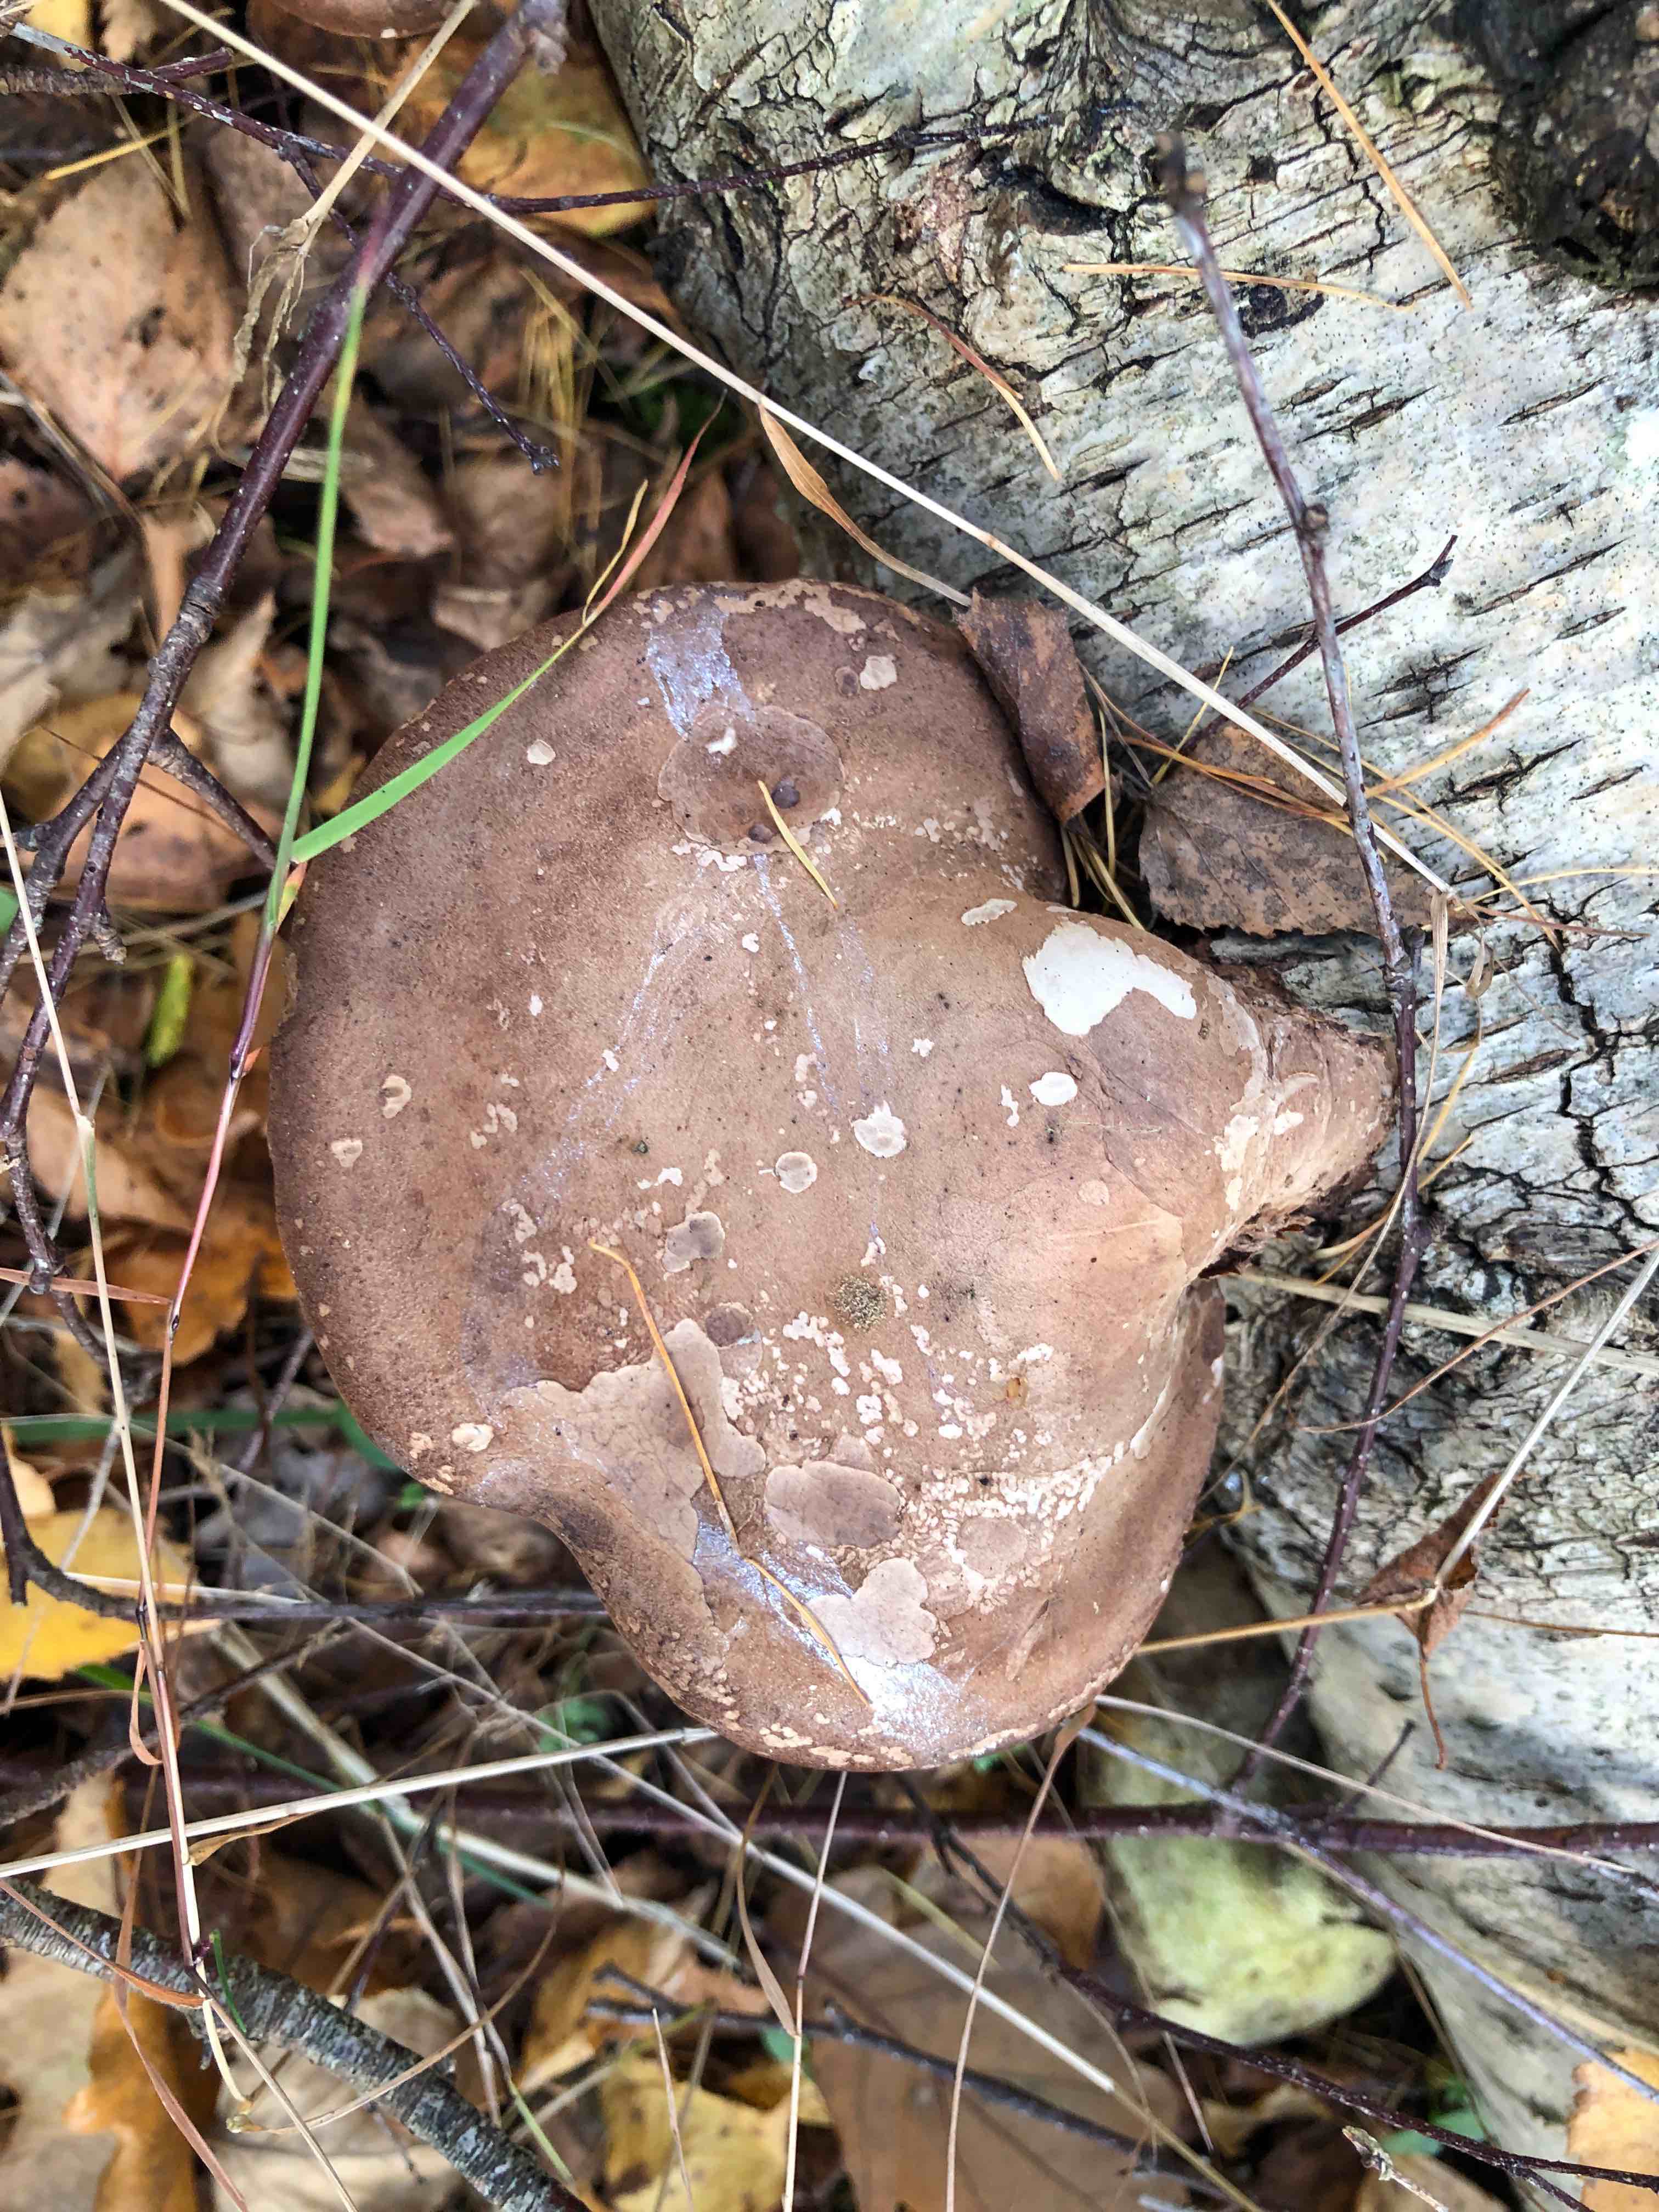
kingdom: Fungi
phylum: Basidiomycota
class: Agaricomycetes
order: Polyporales
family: Fomitopsidaceae
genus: Fomitopsis
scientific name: Fomitopsis betulina
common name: birkeporesvamp
